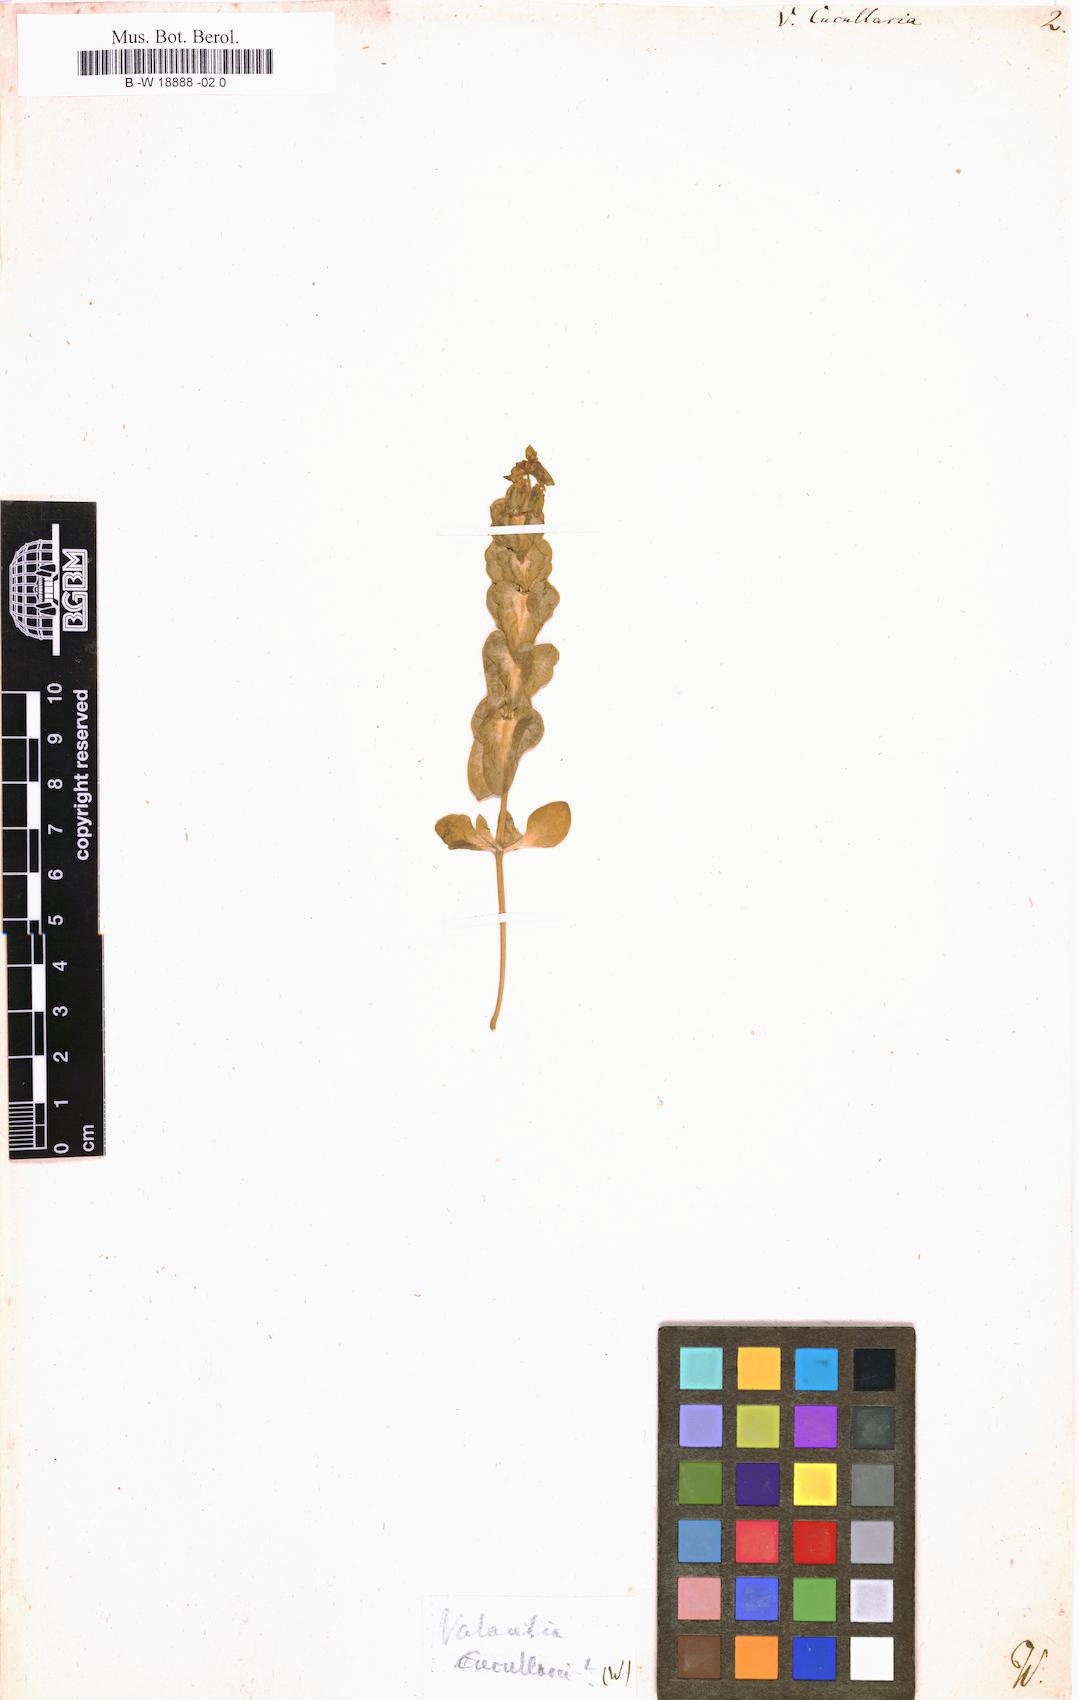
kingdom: Plantae
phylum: Tracheophyta
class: Magnoliopsida
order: Gentianales
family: Rubiaceae
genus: Valantia
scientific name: Valantia cucullaria
